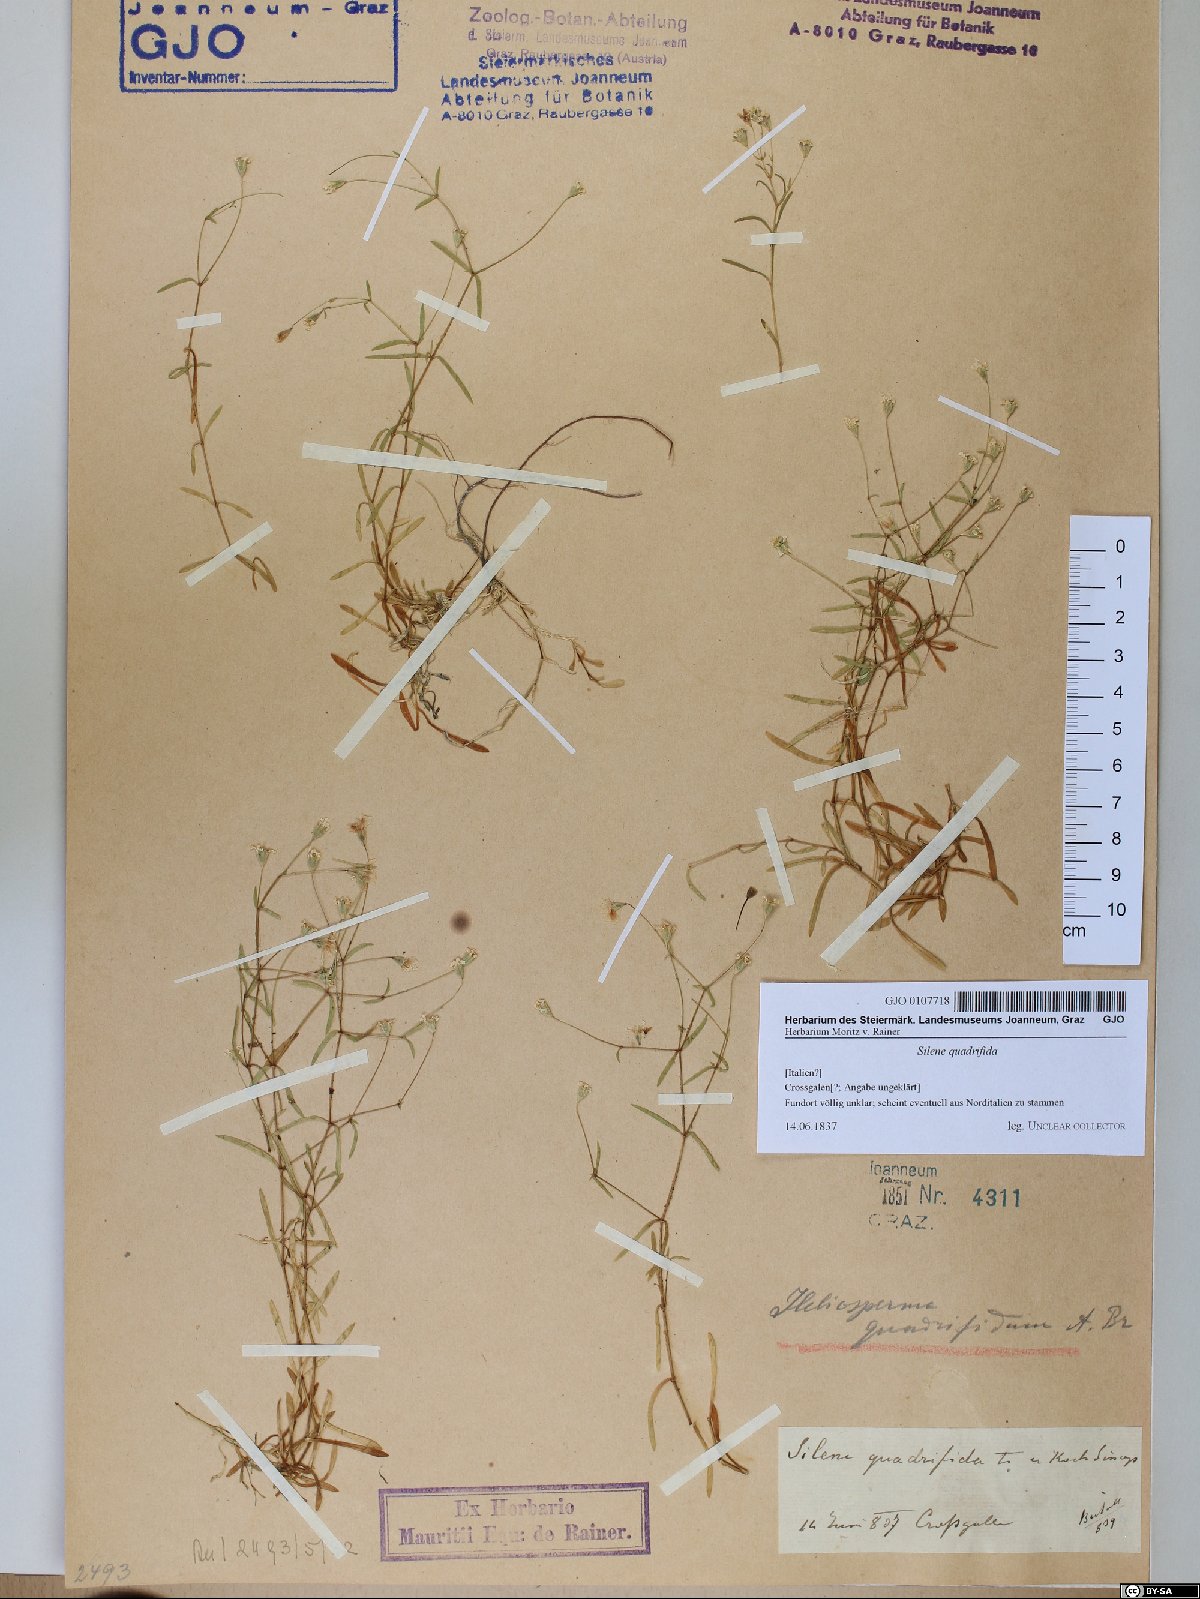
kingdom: Plantae
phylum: Tracheophyta
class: Magnoliopsida
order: Caryophyllales
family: Caryophyllaceae
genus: Heliosperma
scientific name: Heliosperma alpestre
